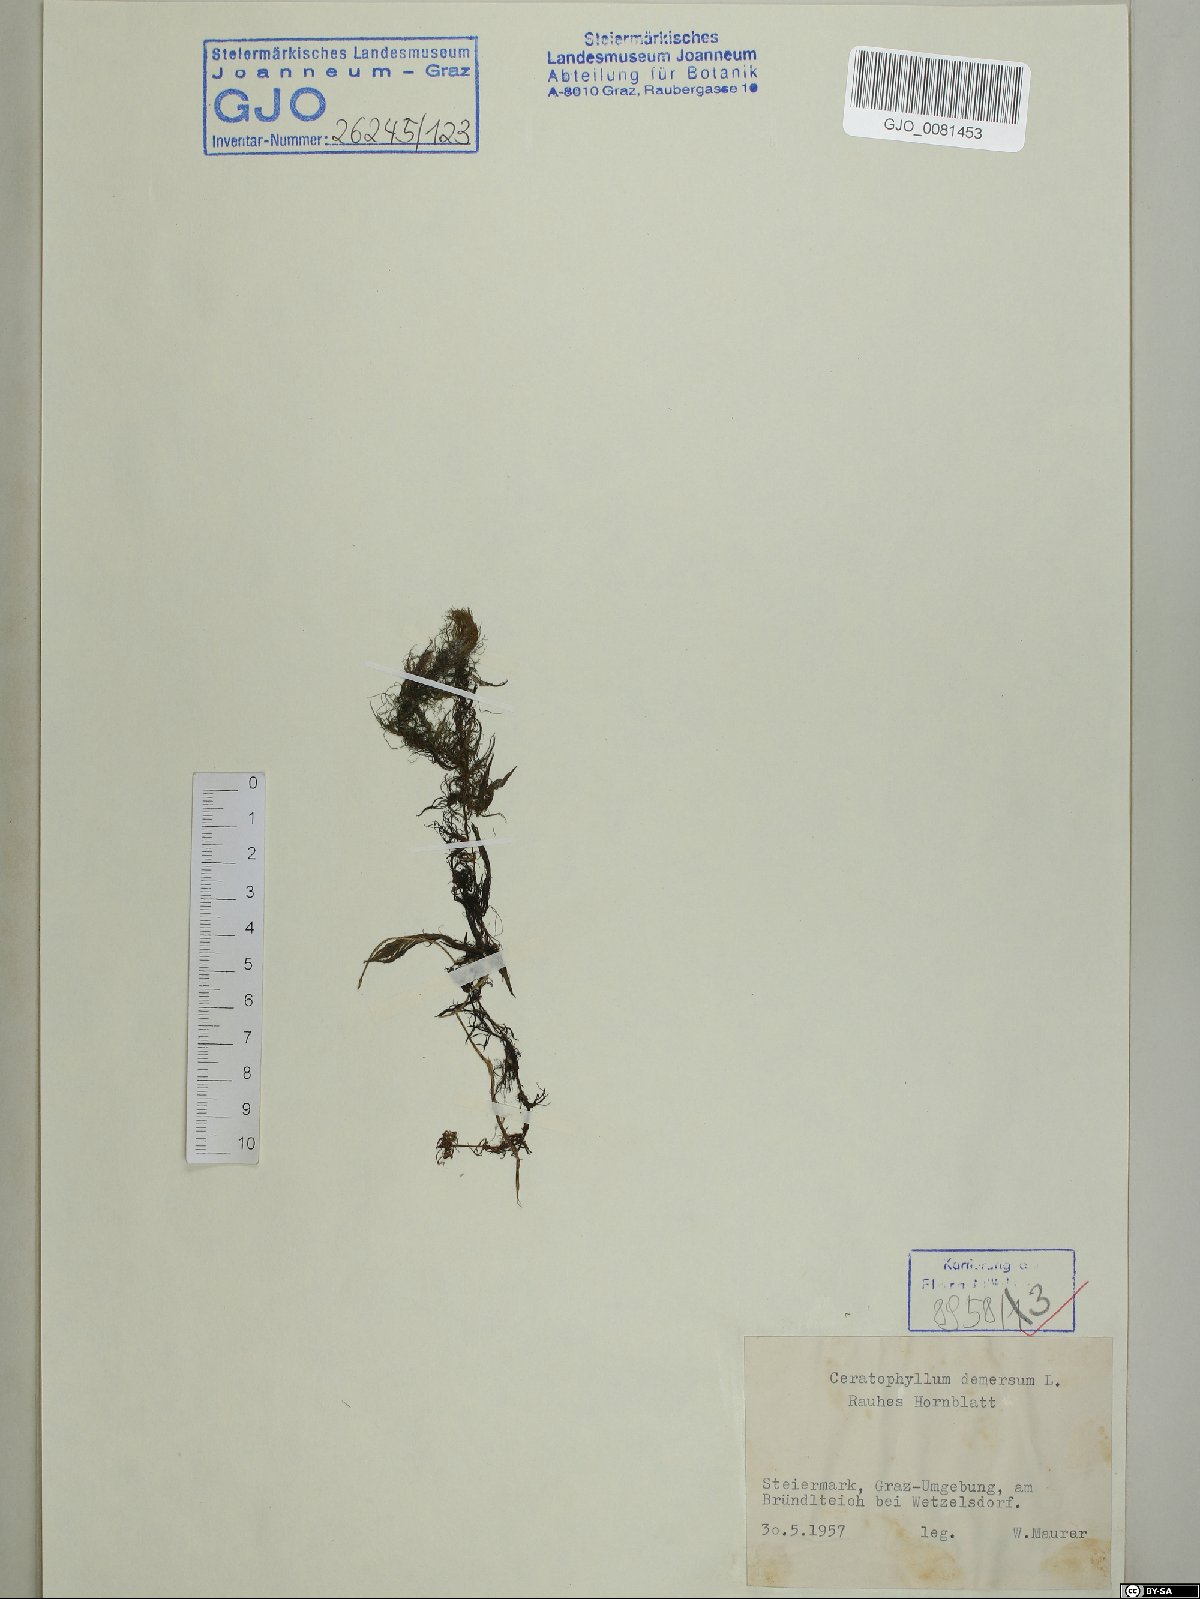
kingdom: Plantae
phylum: Tracheophyta
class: Magnoliopsida
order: Ceratophyllales
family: Ceratophyllaceae
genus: Ceratophyllum
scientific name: Ceratophyllum demersum
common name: Rigid hornwort
